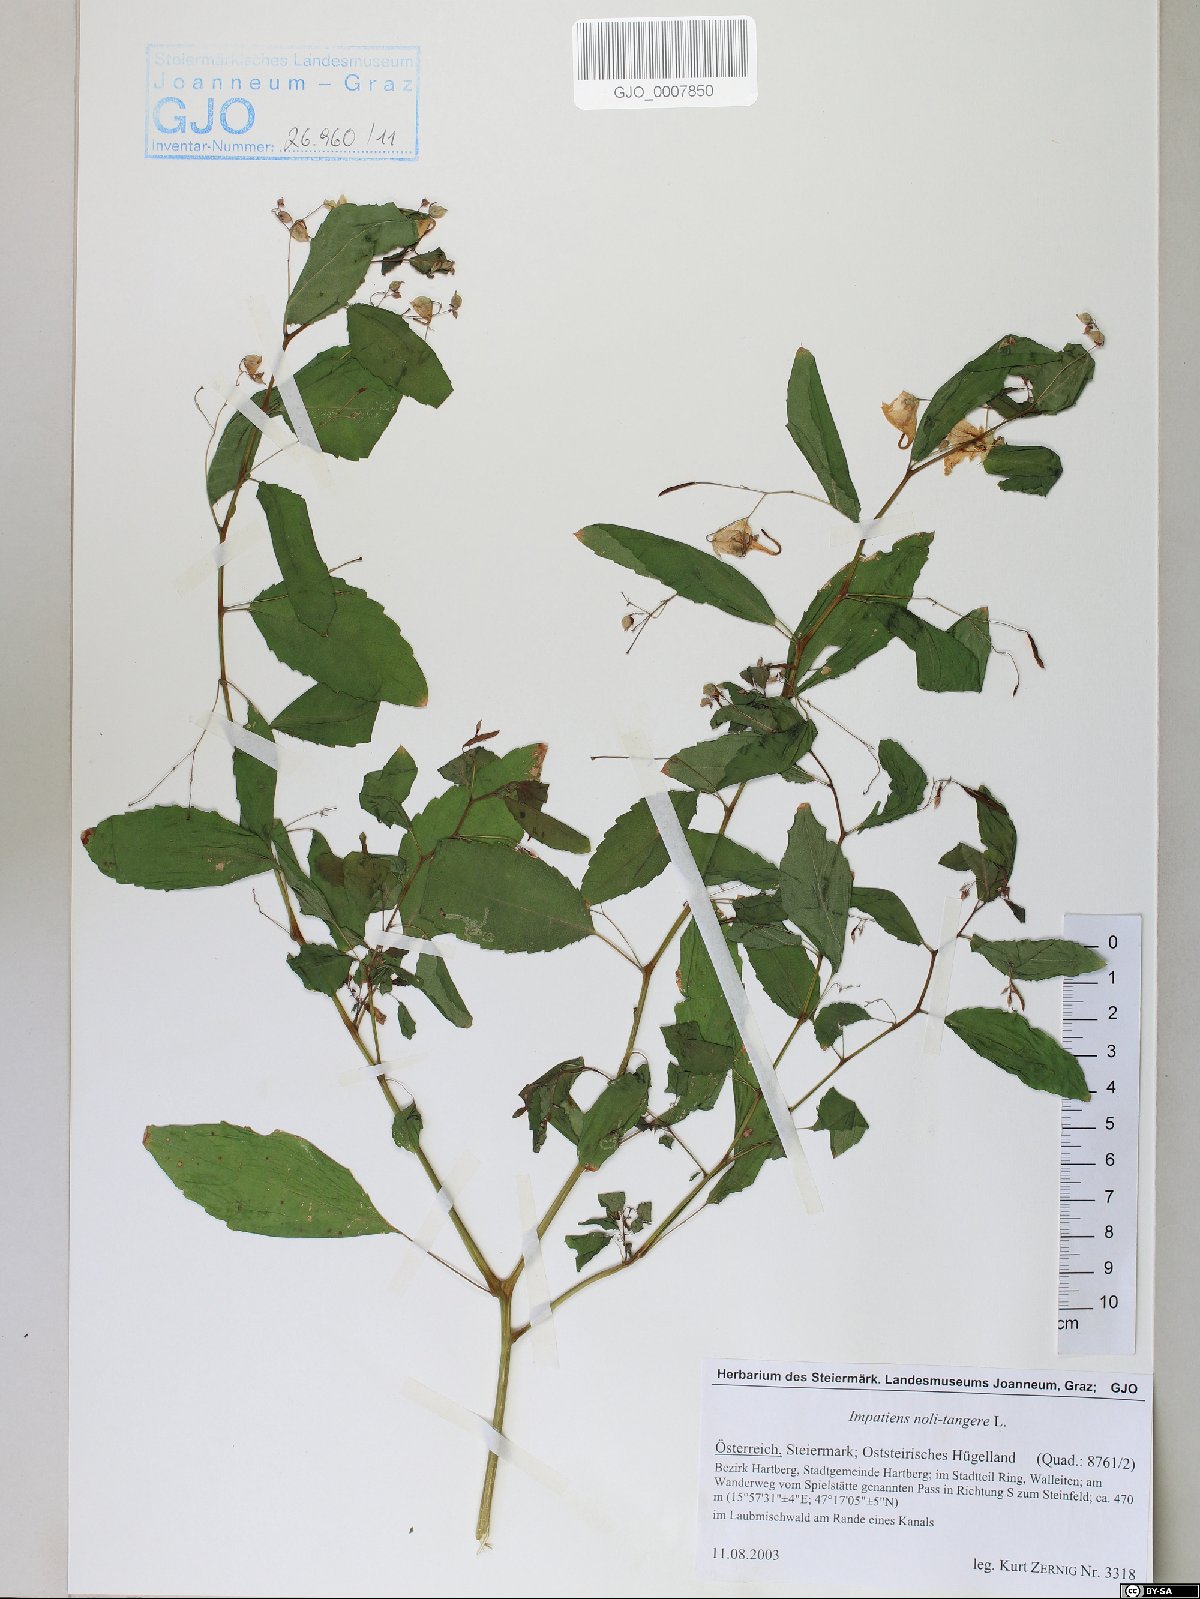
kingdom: Plantae
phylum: Tracheophyta
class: Magnoliopsida
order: Ericales
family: Balsaminaceae
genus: Impatiens
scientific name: Impatiens noli-tangere
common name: Touch-me-not balsam
